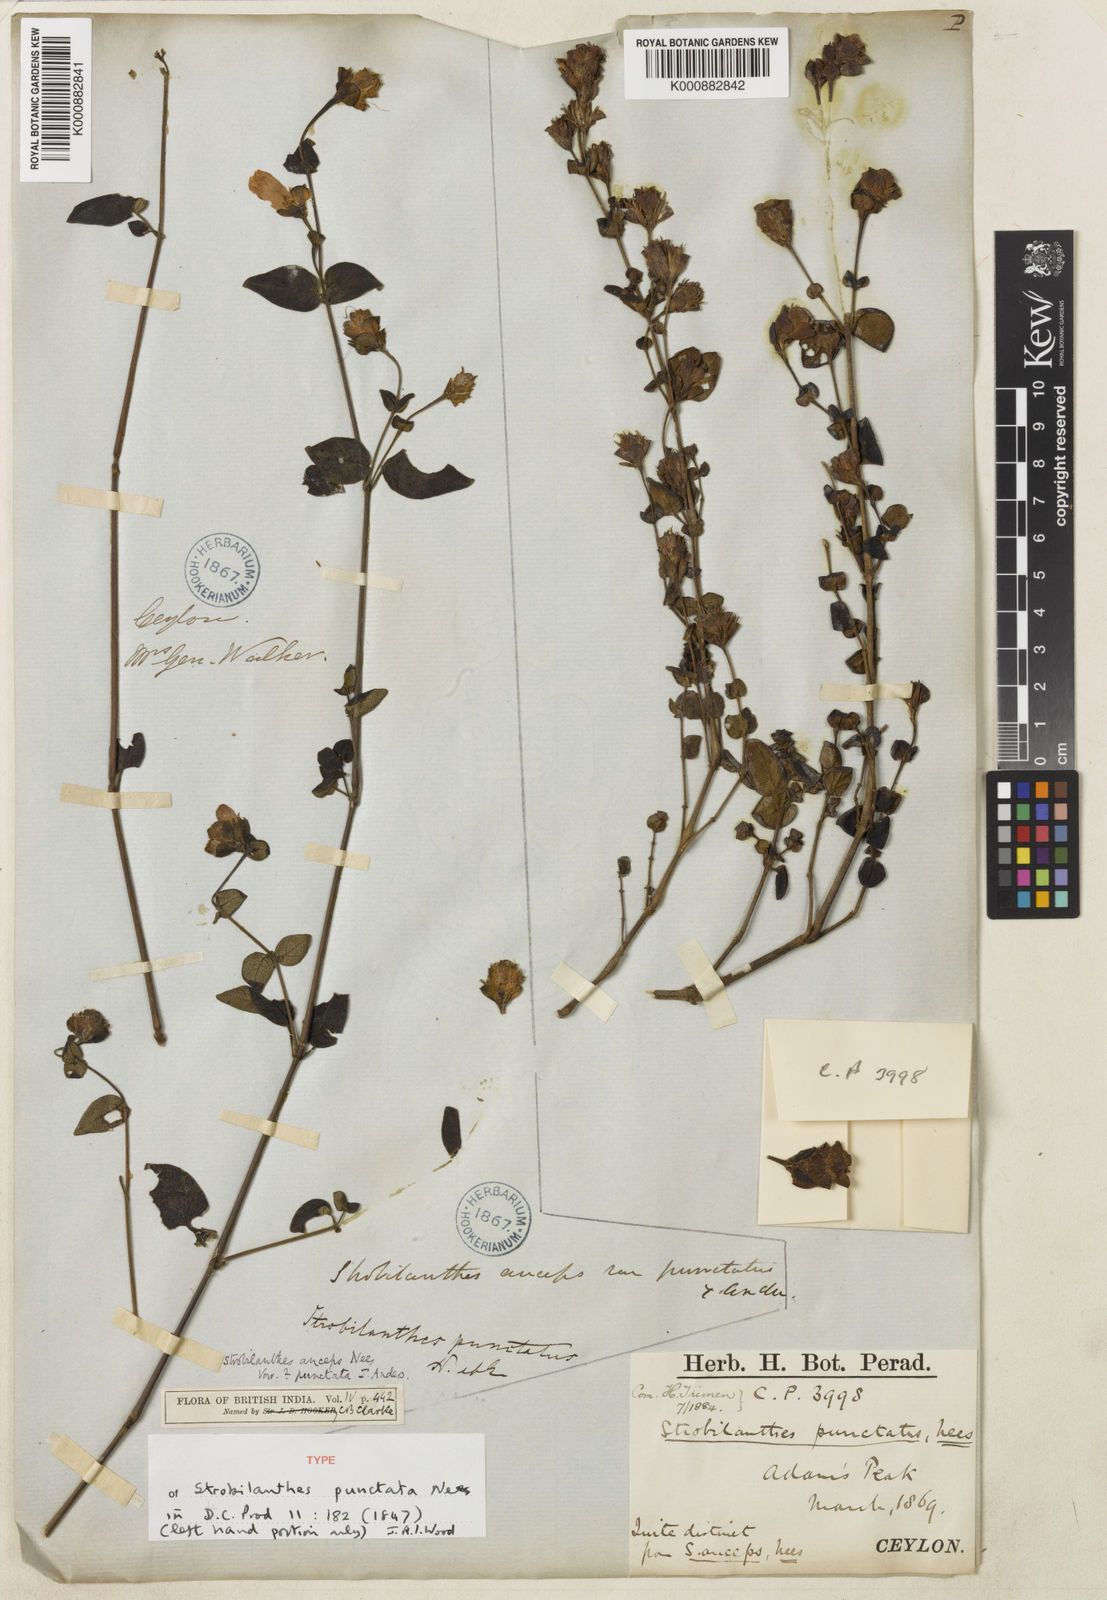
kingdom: Plantae
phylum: Tracheophyta
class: Magnoliopsida
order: Lamiales
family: Acanthaceae
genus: Strobilanthes
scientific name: Strobilanthes anceps
